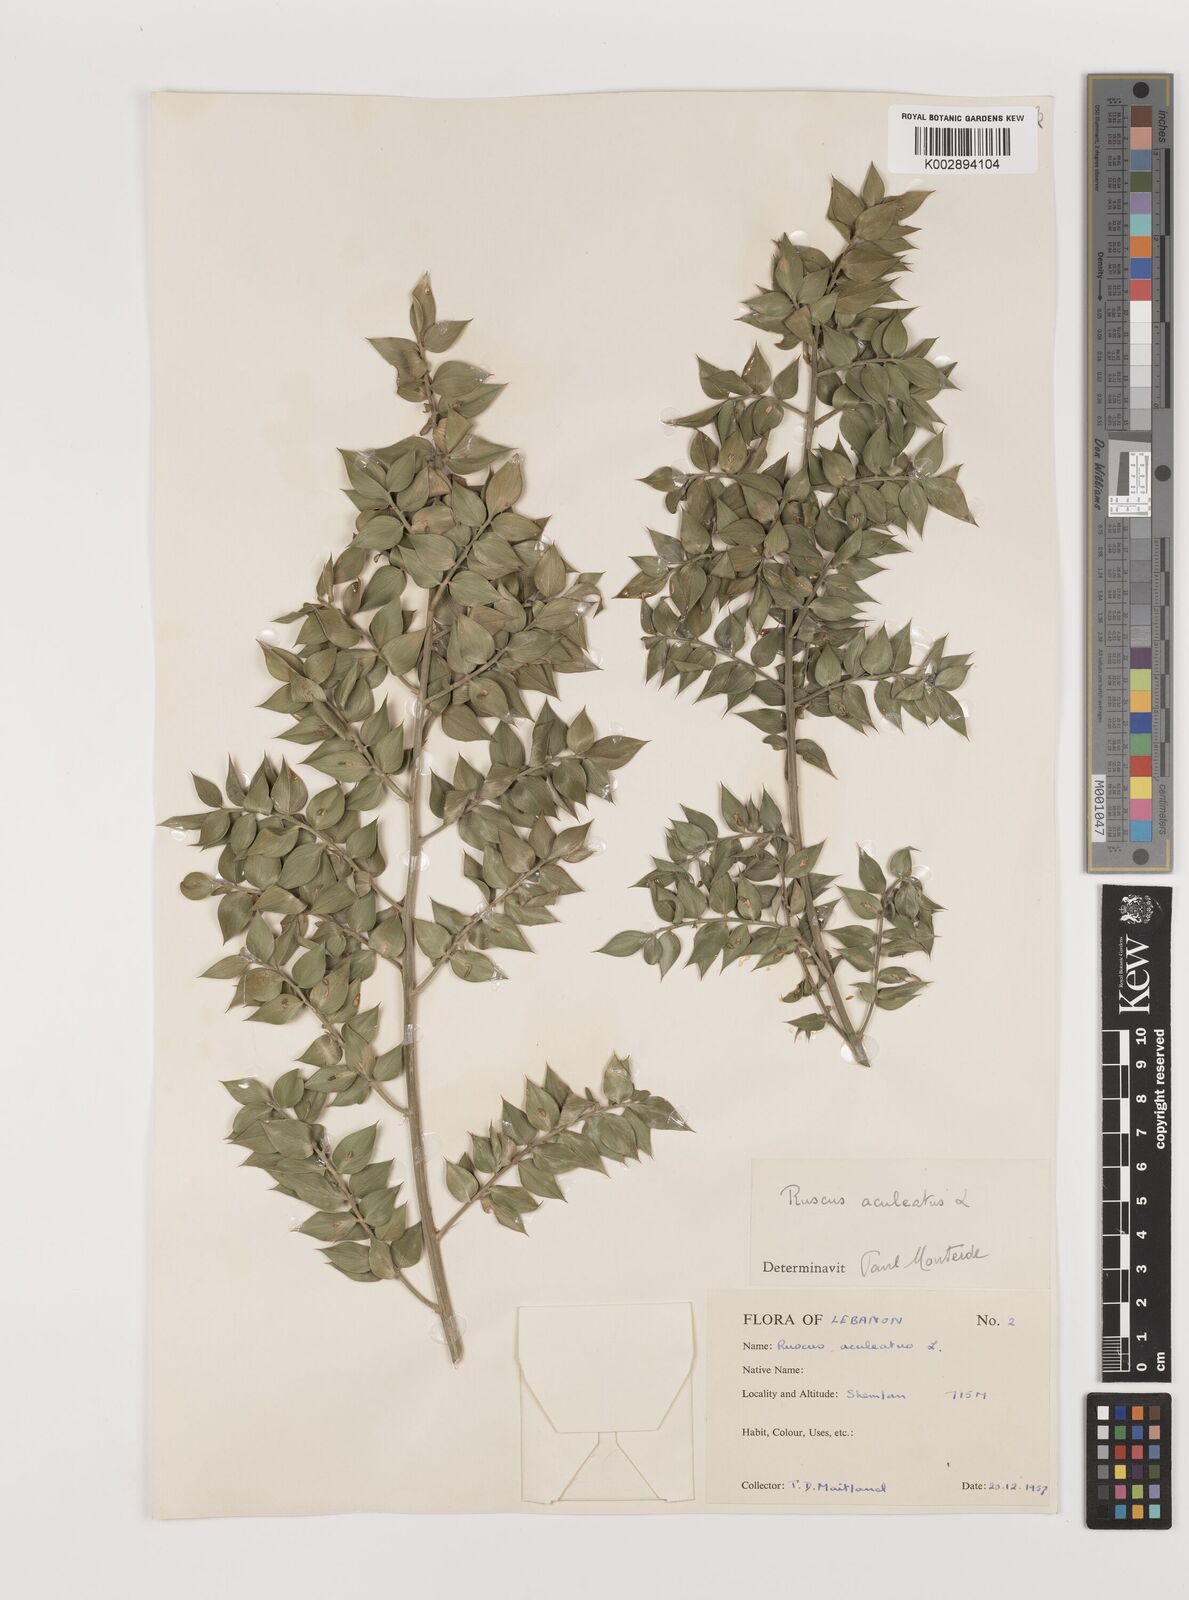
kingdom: Plantae
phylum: Tracheophyta
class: Liliopsida
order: Asparagales
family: Asparagaceae
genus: Ruscus
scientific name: Ruscus aculeatus
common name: Butcher's-broom
